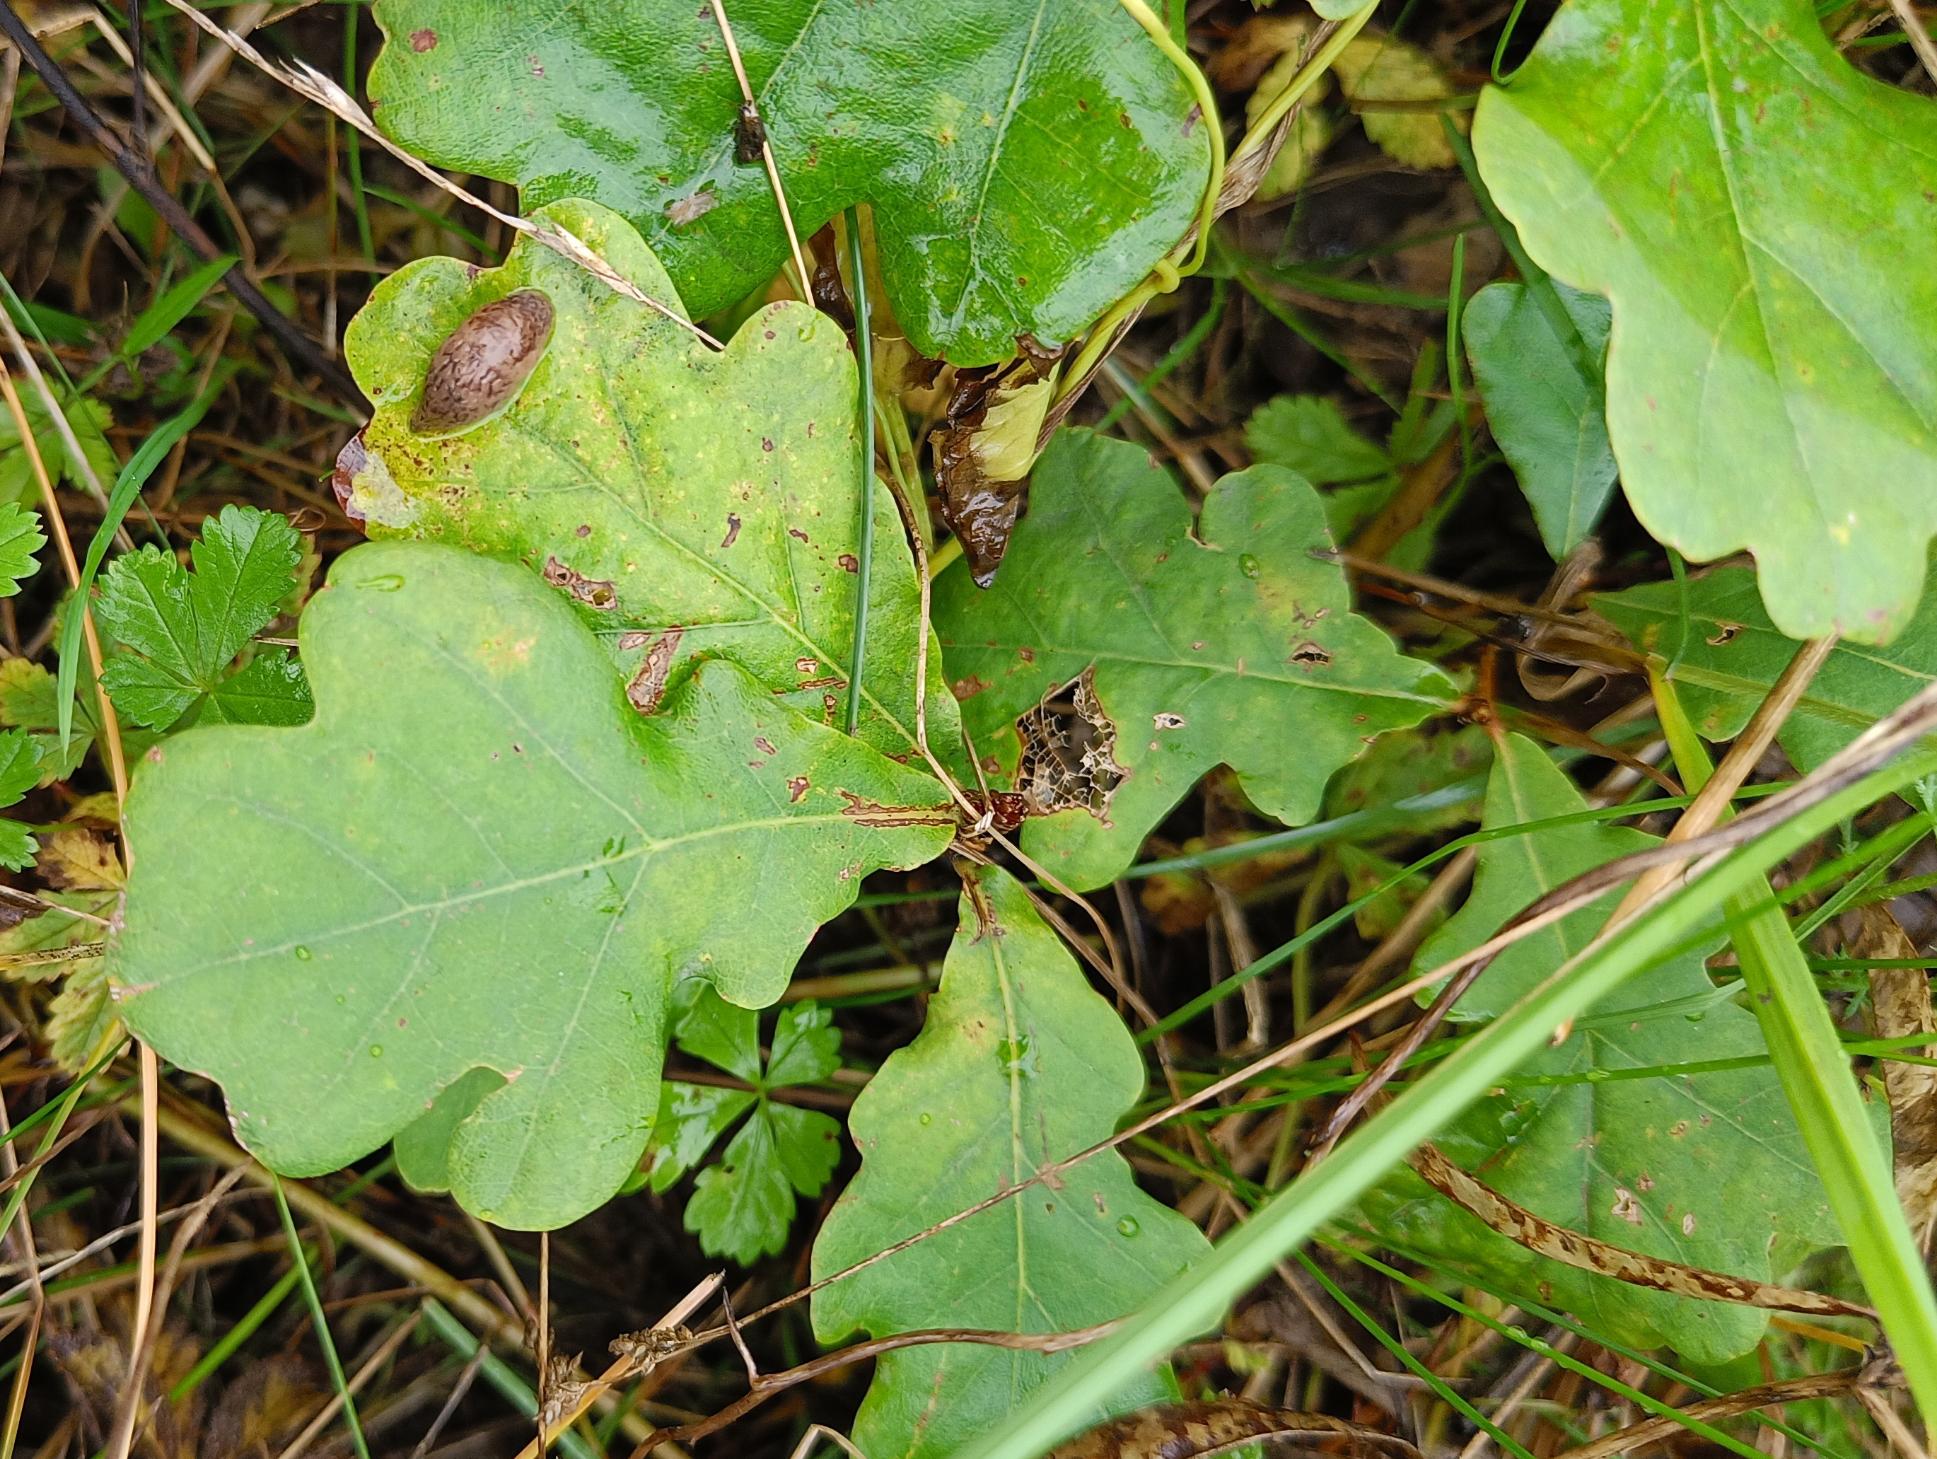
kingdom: Plantae
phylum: Tracheophyta
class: Magnoliopsida
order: Fagales
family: Fagaceae
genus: Quercus
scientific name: Quercus robur
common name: Stilk-eg/almindelig eg
